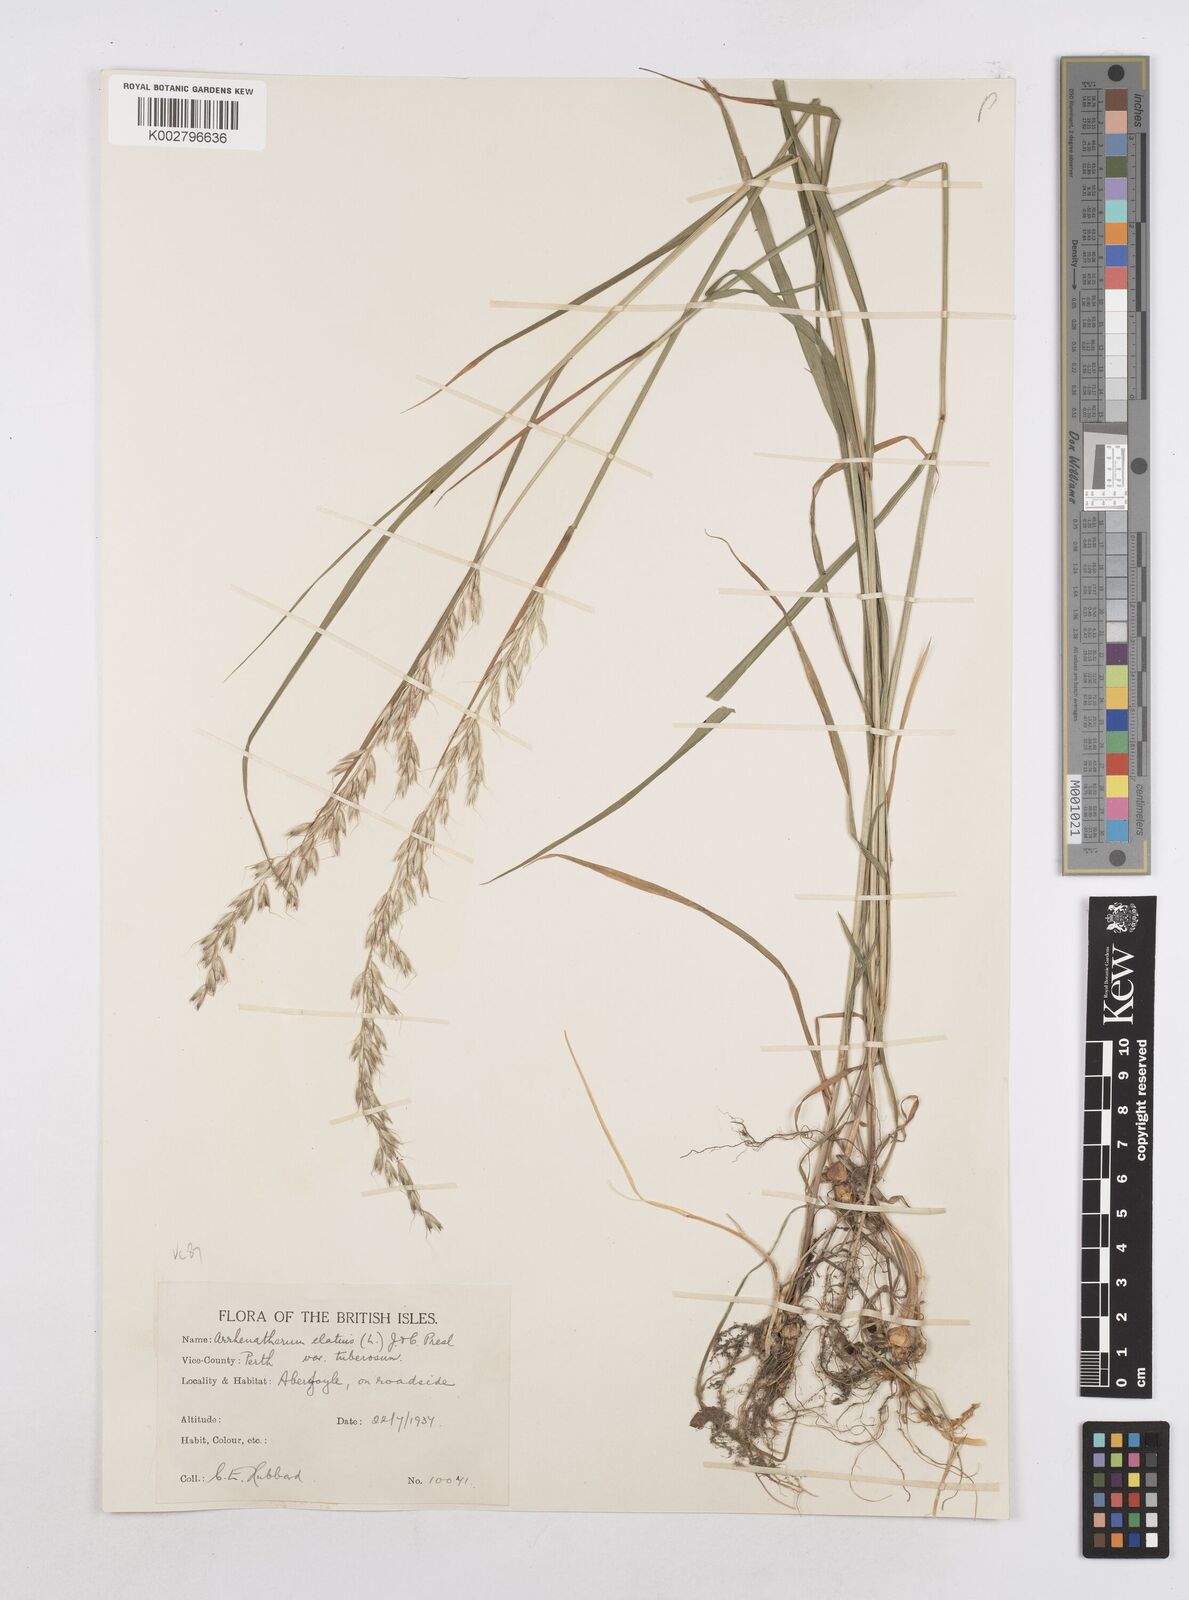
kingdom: Plantae
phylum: Tracheophyta
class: Liliopsida
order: Poales
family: Poaceae
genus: Arrhenatherum
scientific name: Arrhenatherum elatius
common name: Tall oatgrass
